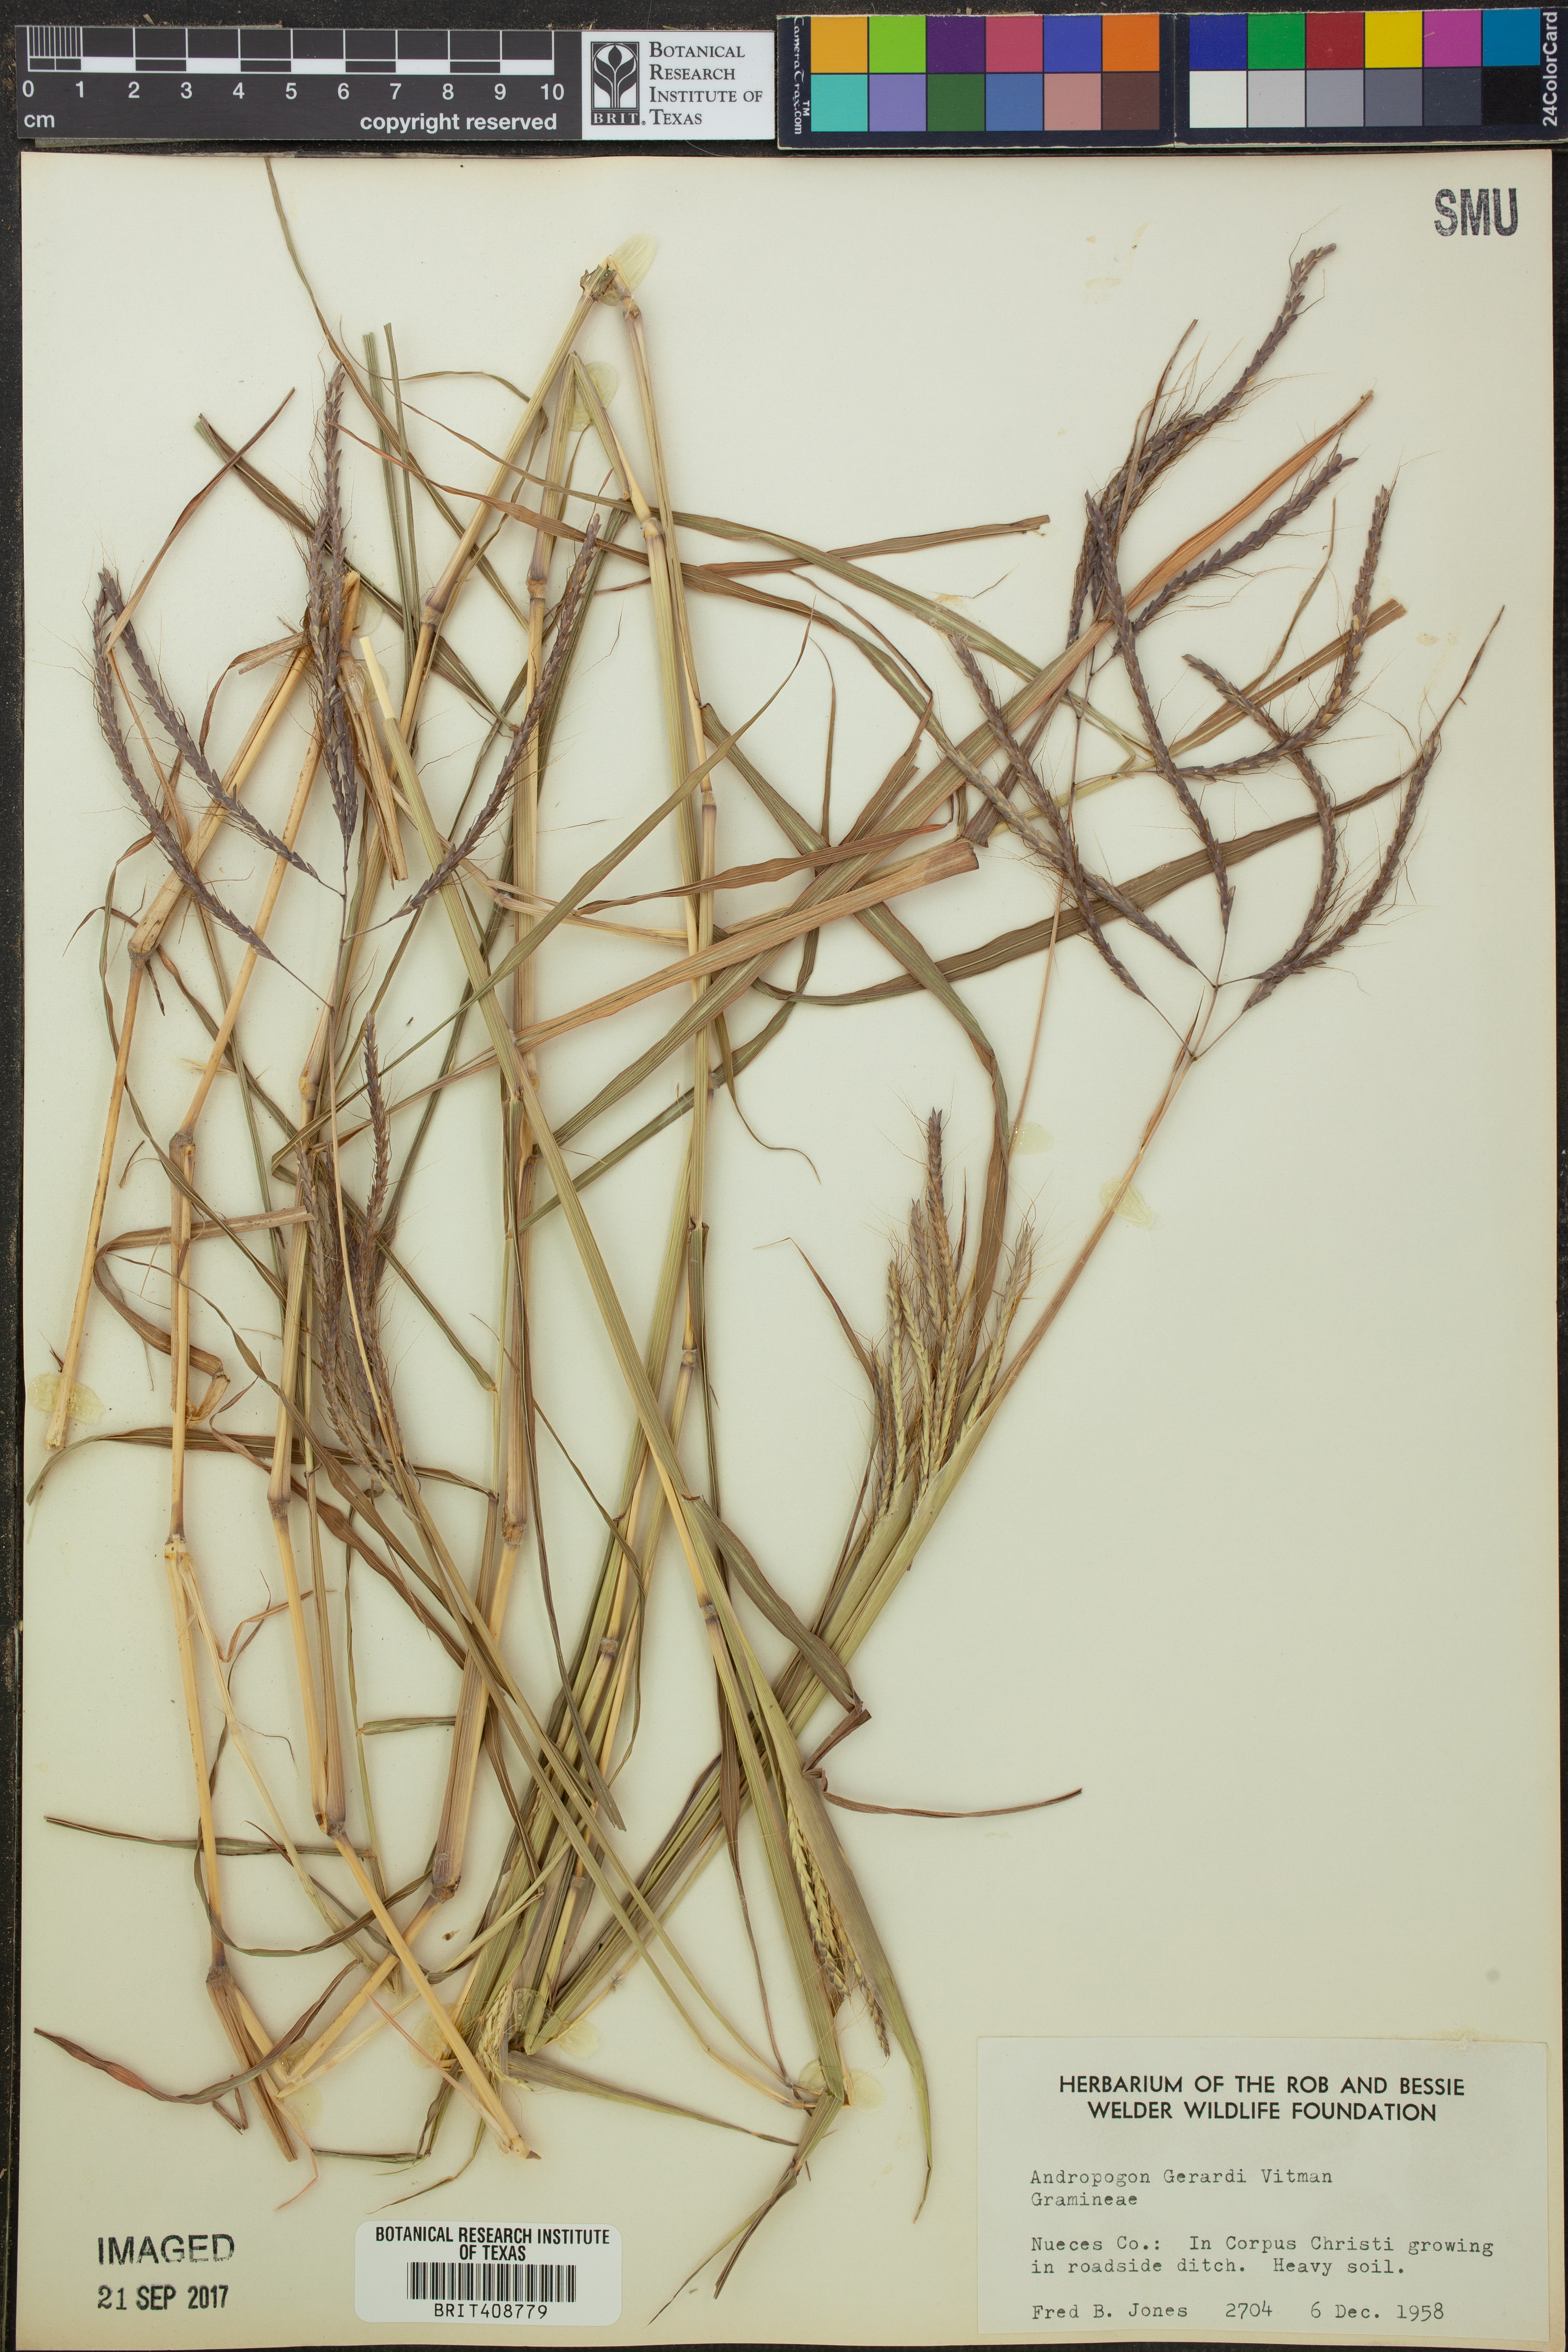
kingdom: Plantae
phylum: Tracheophyta
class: Liliopsida
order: Poales
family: Poaceae
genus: Andropogon
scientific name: Andropogon gerardi
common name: Big bluestem
